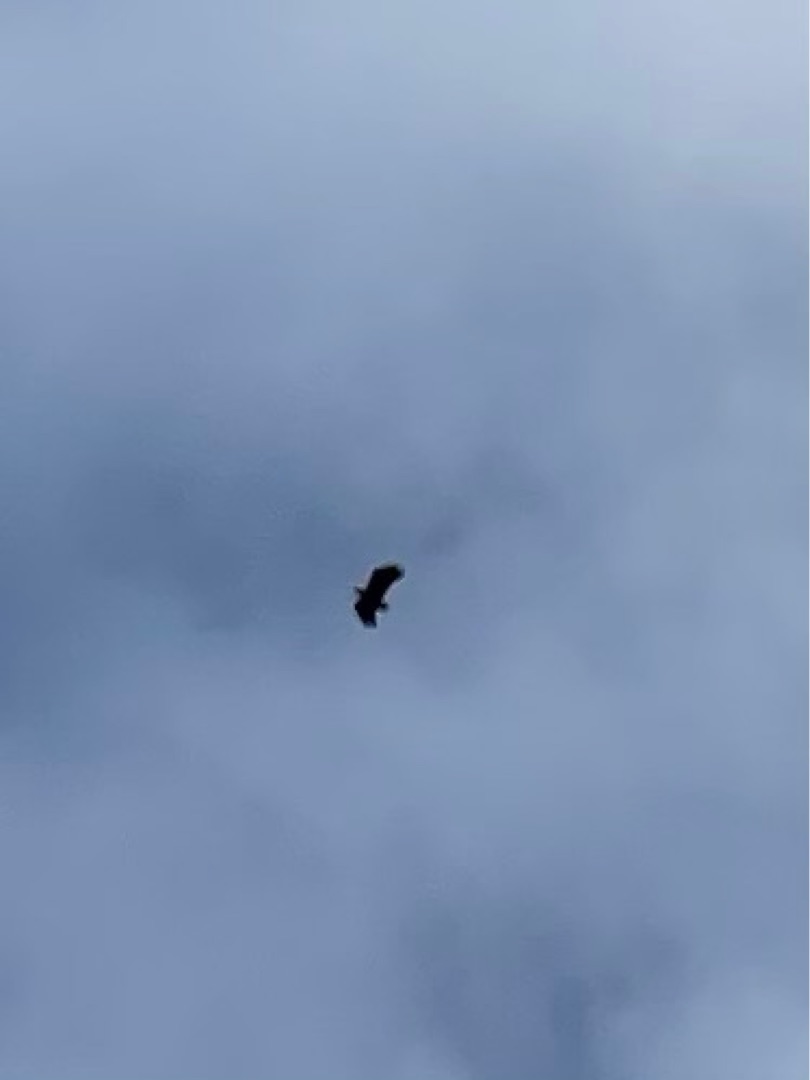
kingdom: Animalia
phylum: Chordata
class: Aves
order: Accipitriformes
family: Accipitridae
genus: Haliaeetus
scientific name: Haliaeetus albicilla
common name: Havørn
